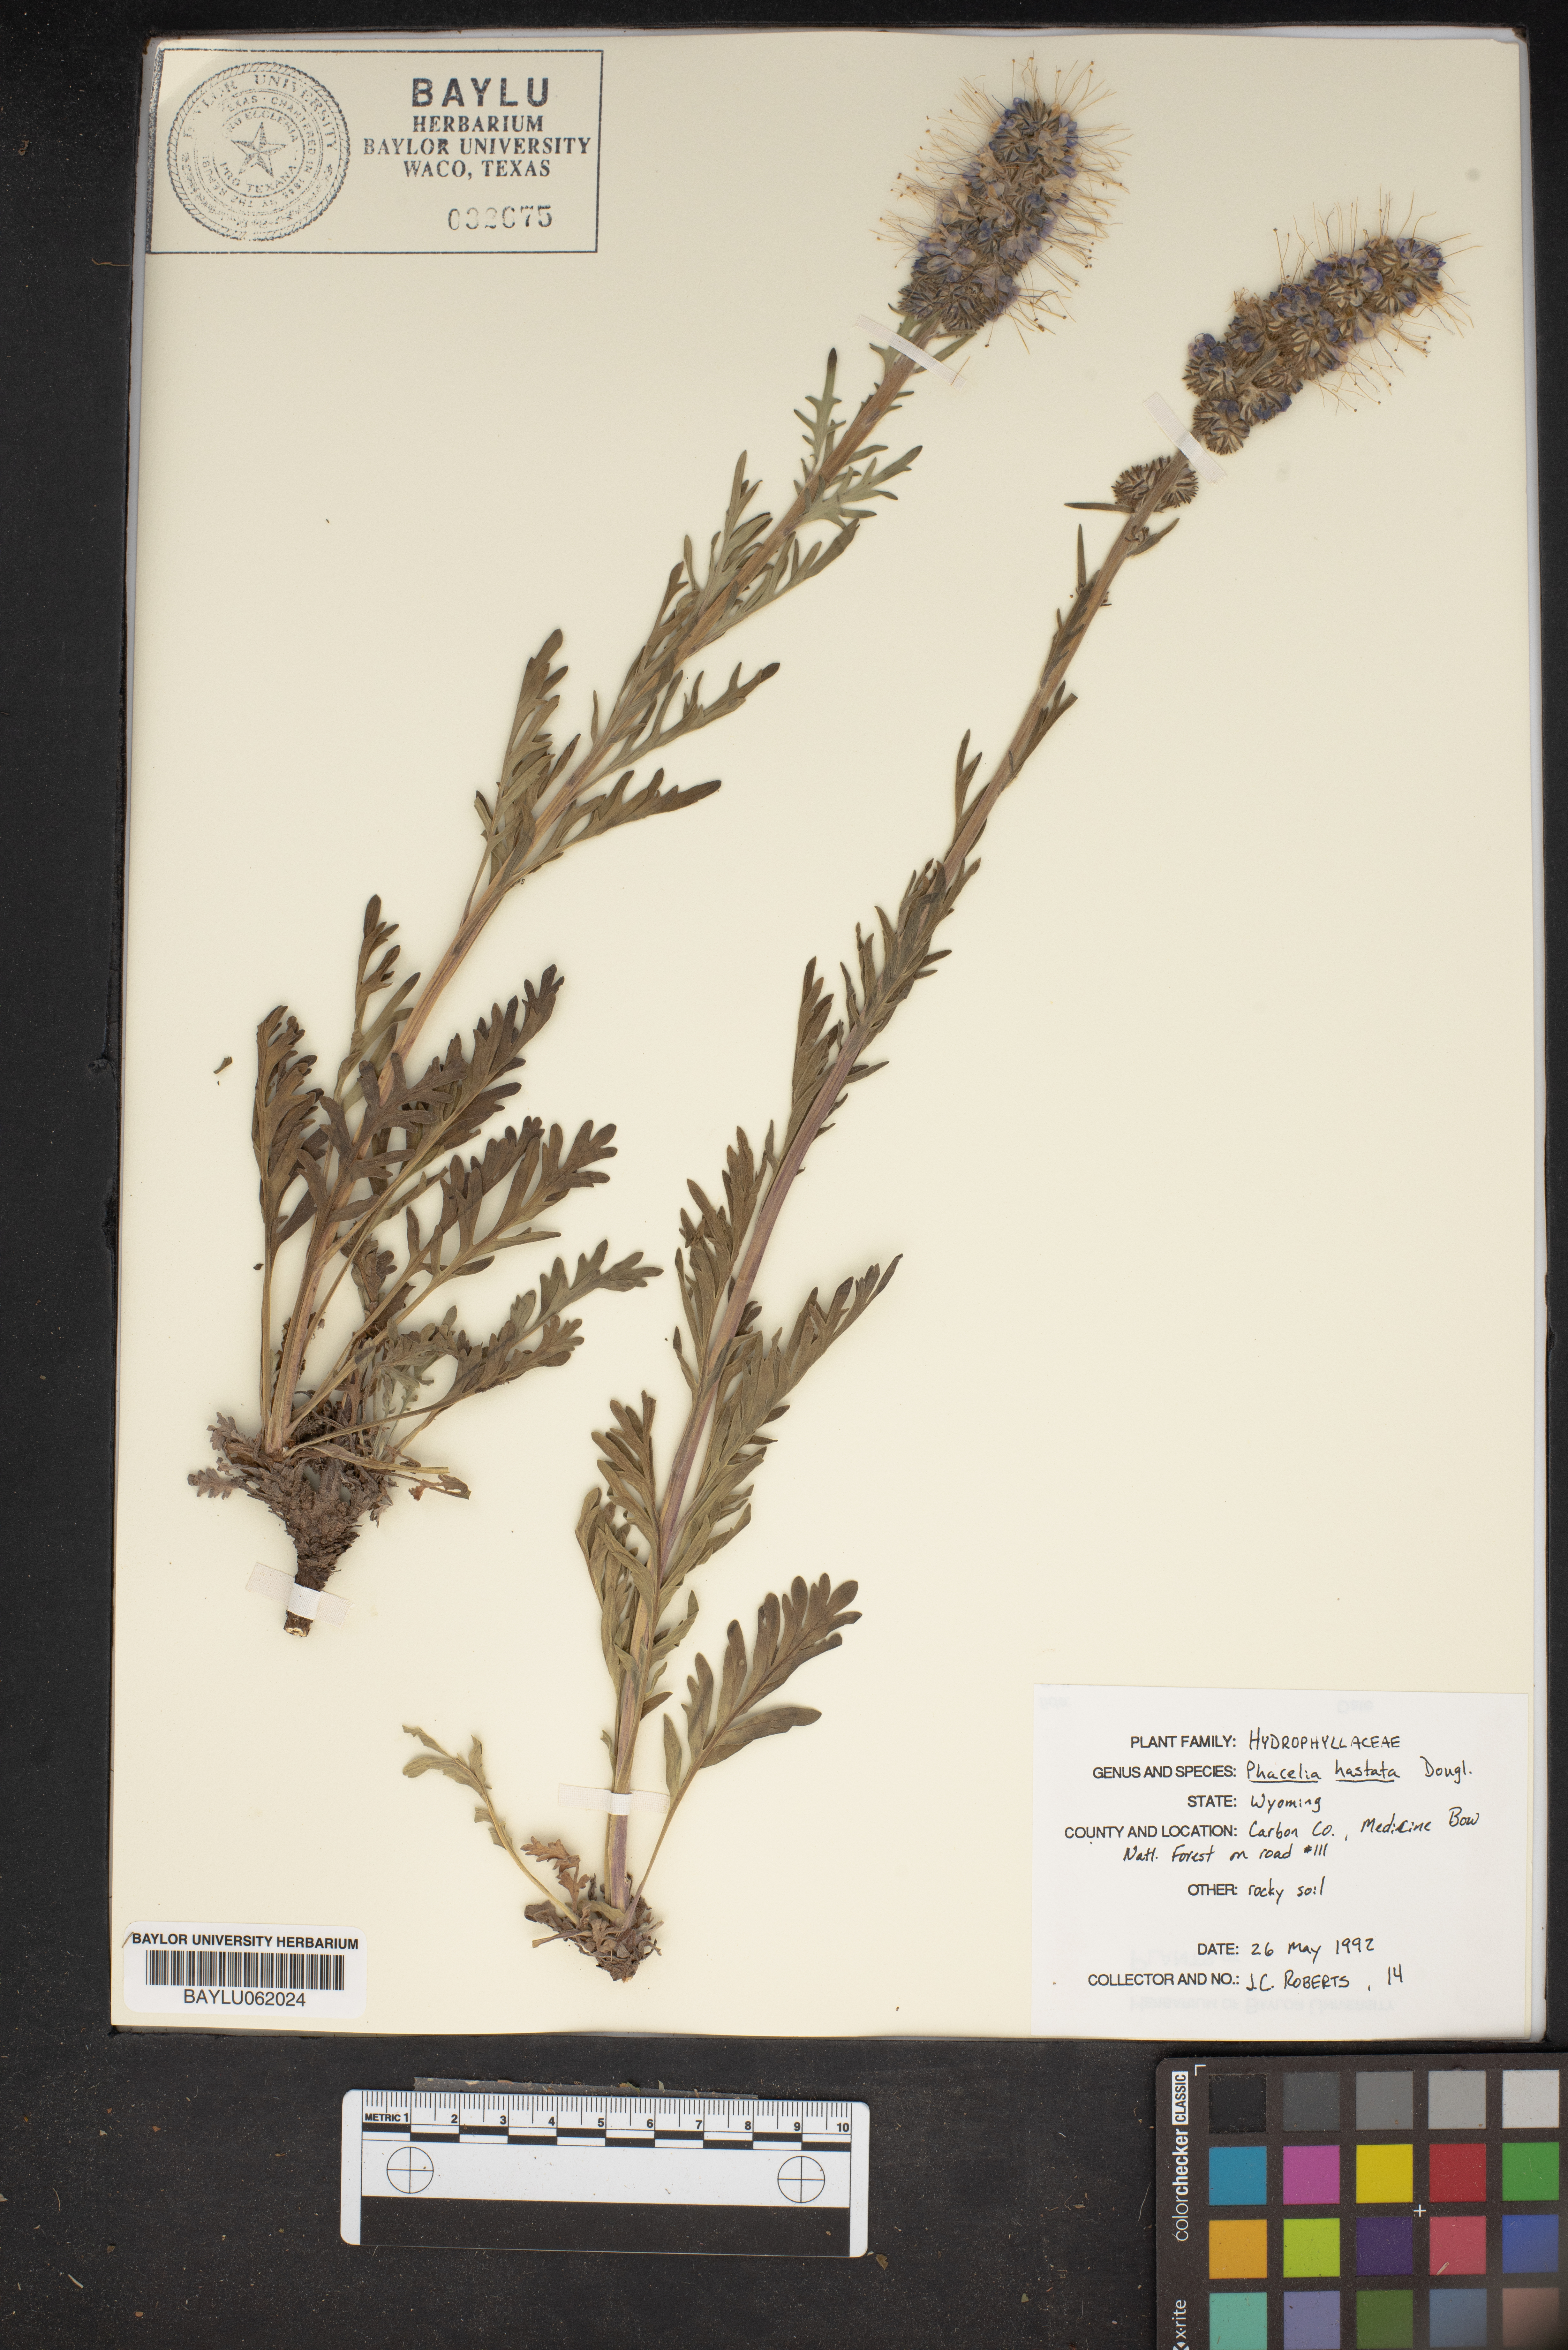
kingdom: Plantae
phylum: Tracheophyta
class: Magnoliopsida
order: Boraginales
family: Hydrophyllaceae
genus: Phacelia
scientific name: Phacelia hastata
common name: Silver-leaved phacelia
